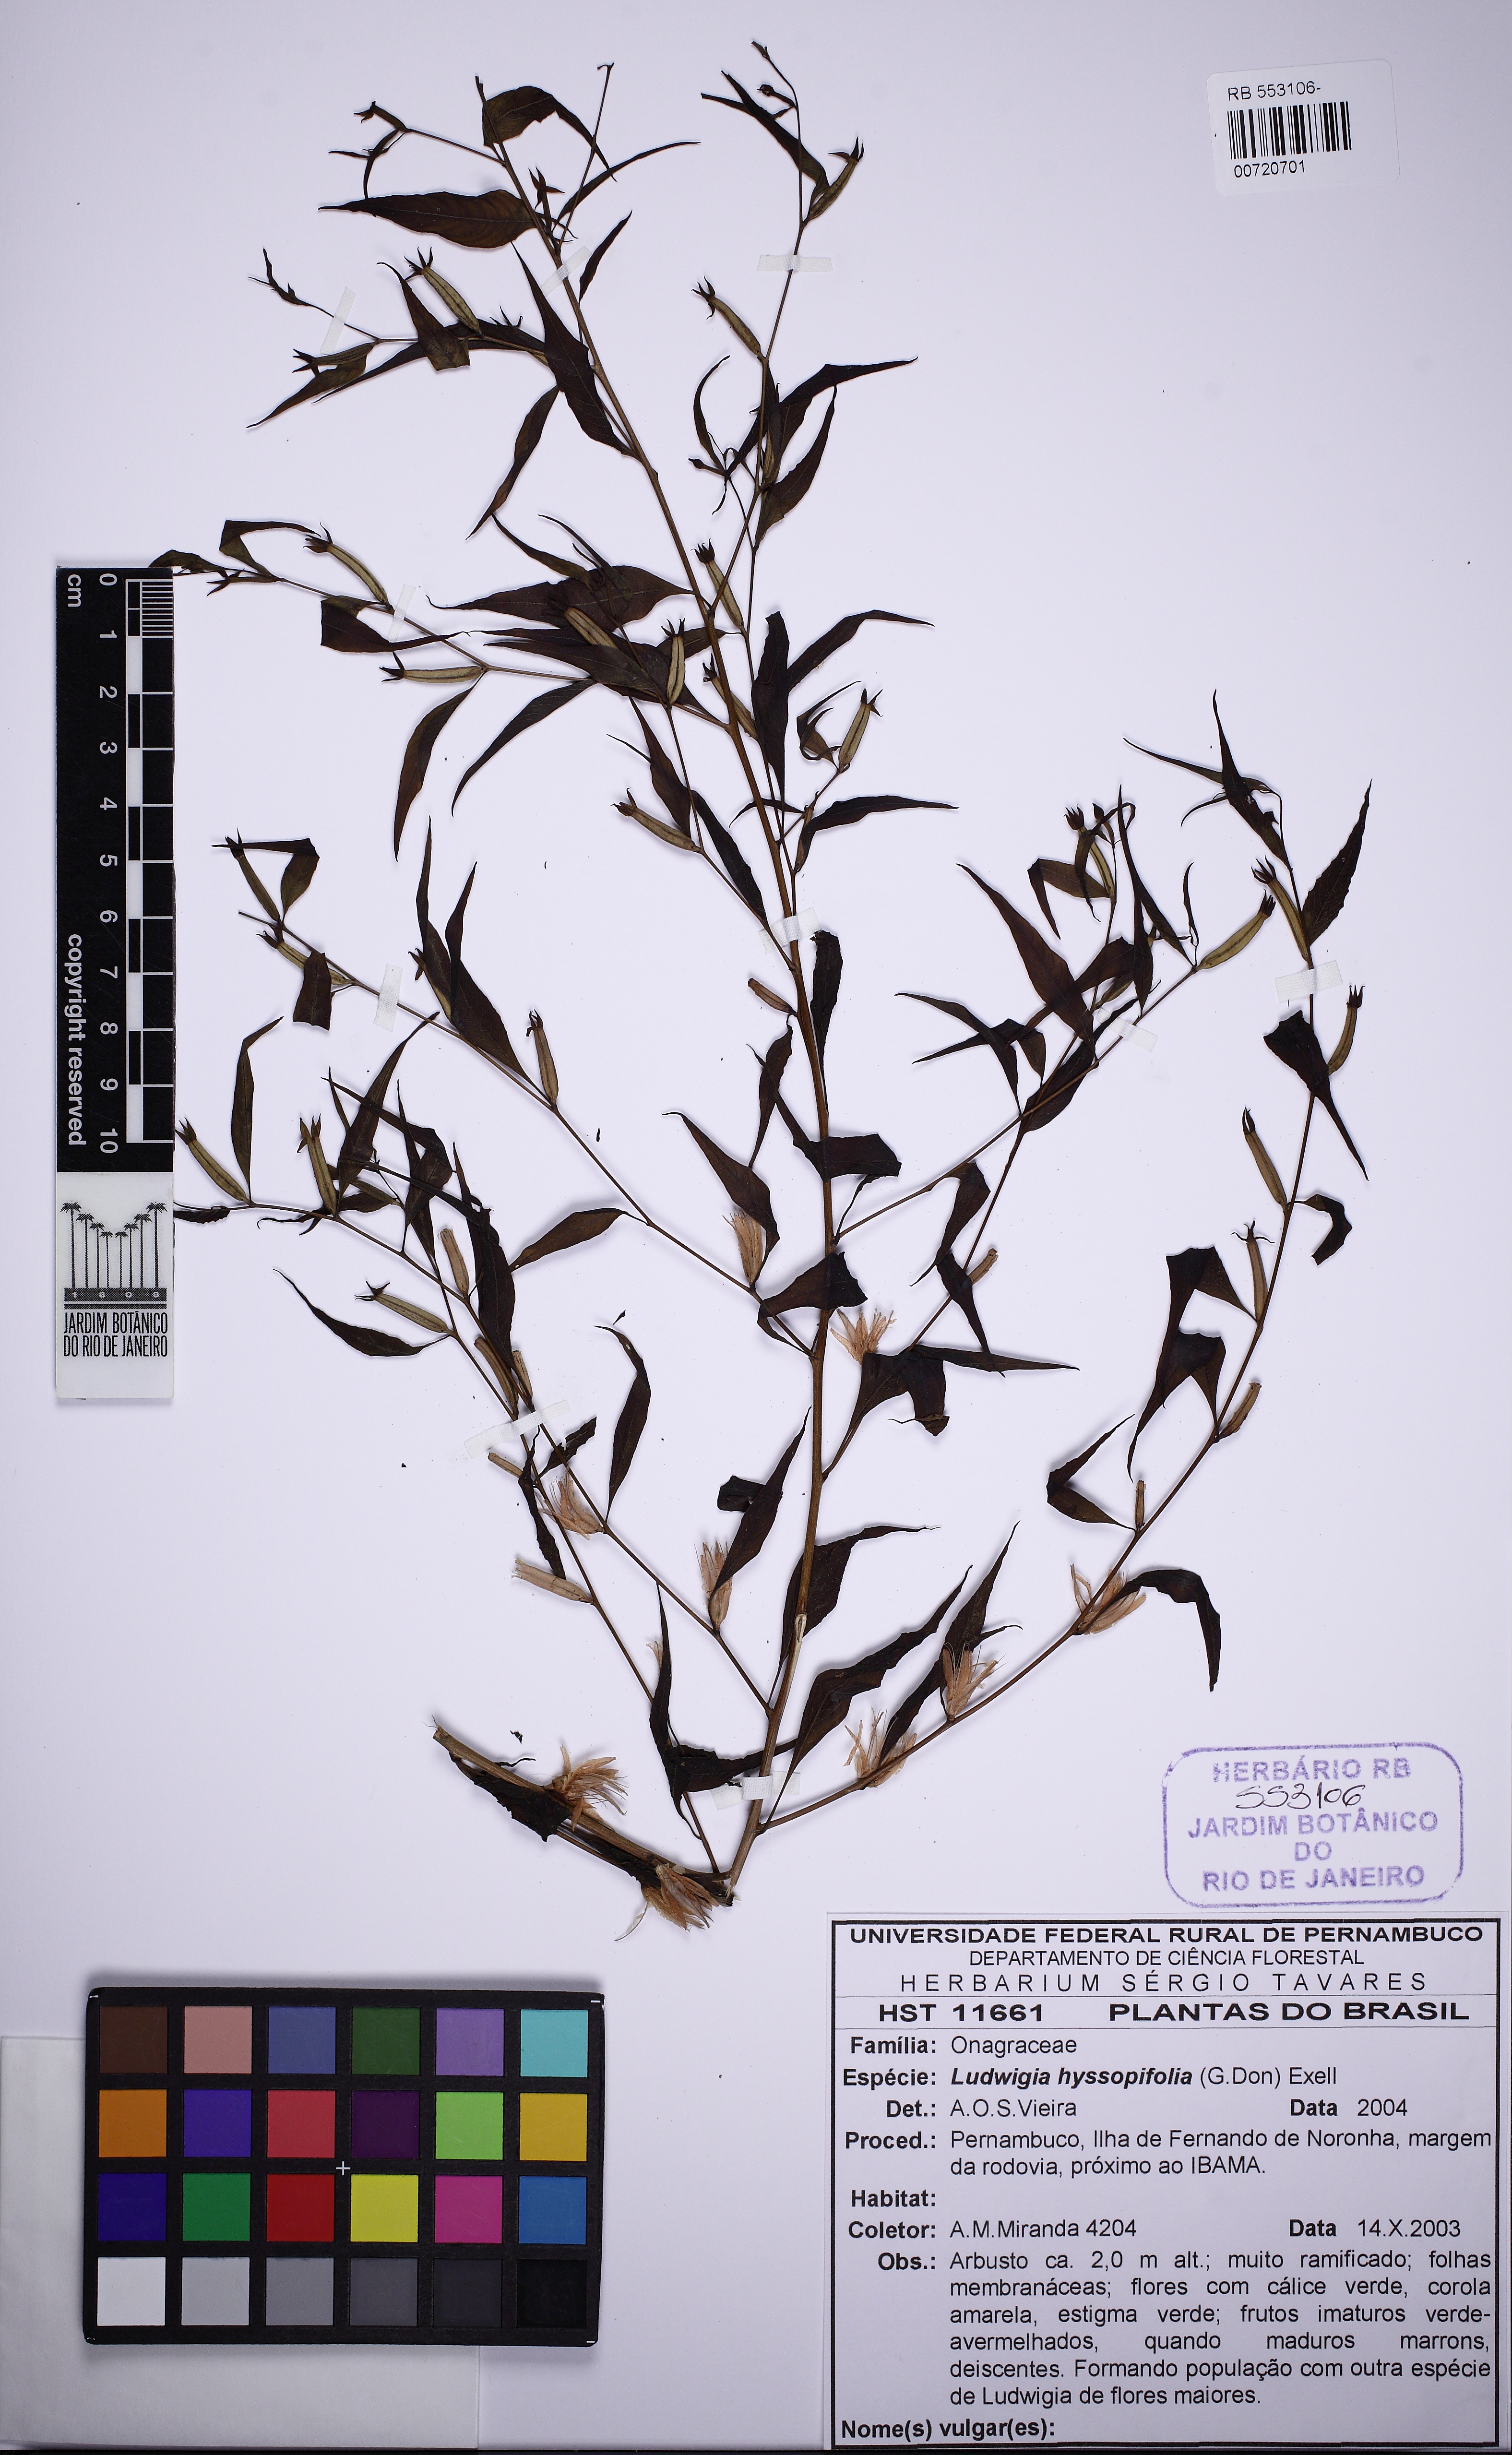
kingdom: Plantae
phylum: Tracheophyta
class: Magnoliopsida
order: Myrtales
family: Onagraceae
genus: Ludwigia
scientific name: Ludwigia erecta
